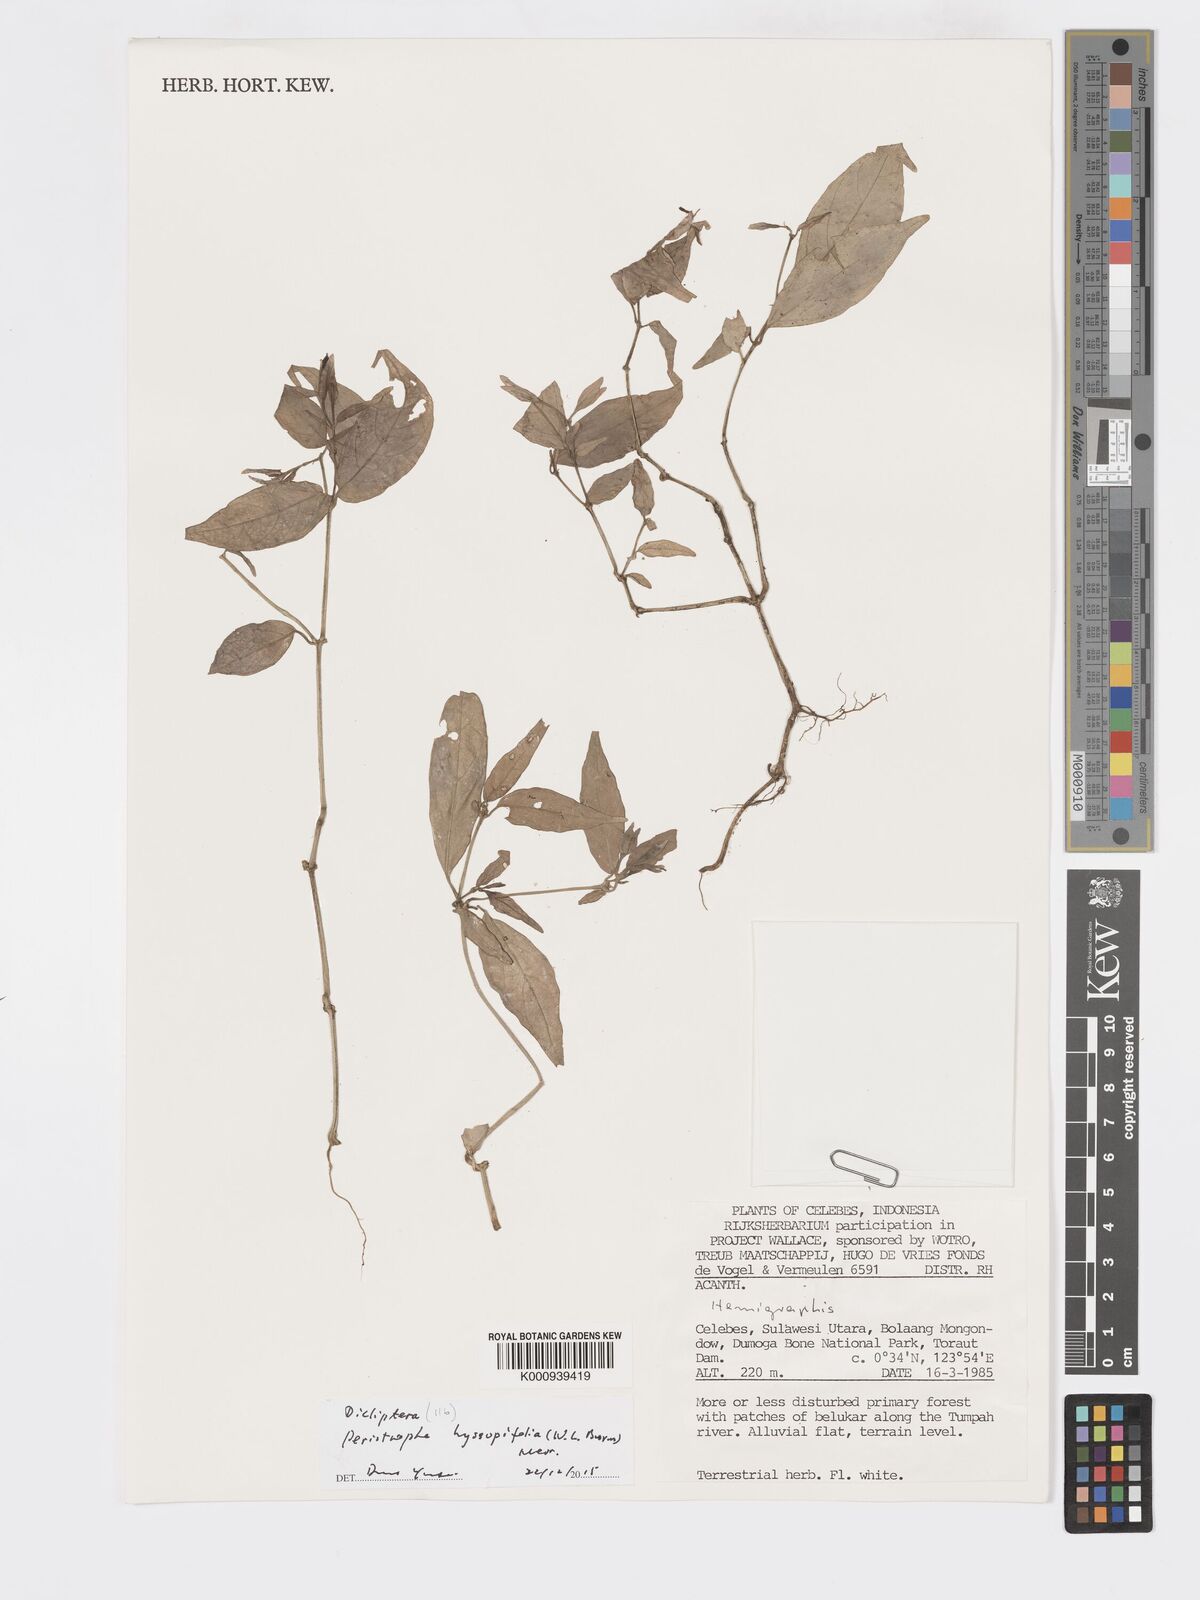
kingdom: Plantae
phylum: Tracheophyta
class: Magnoliopsida
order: Lamiales
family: Acanthaceae
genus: Dicliptera
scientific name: Dicliptera
